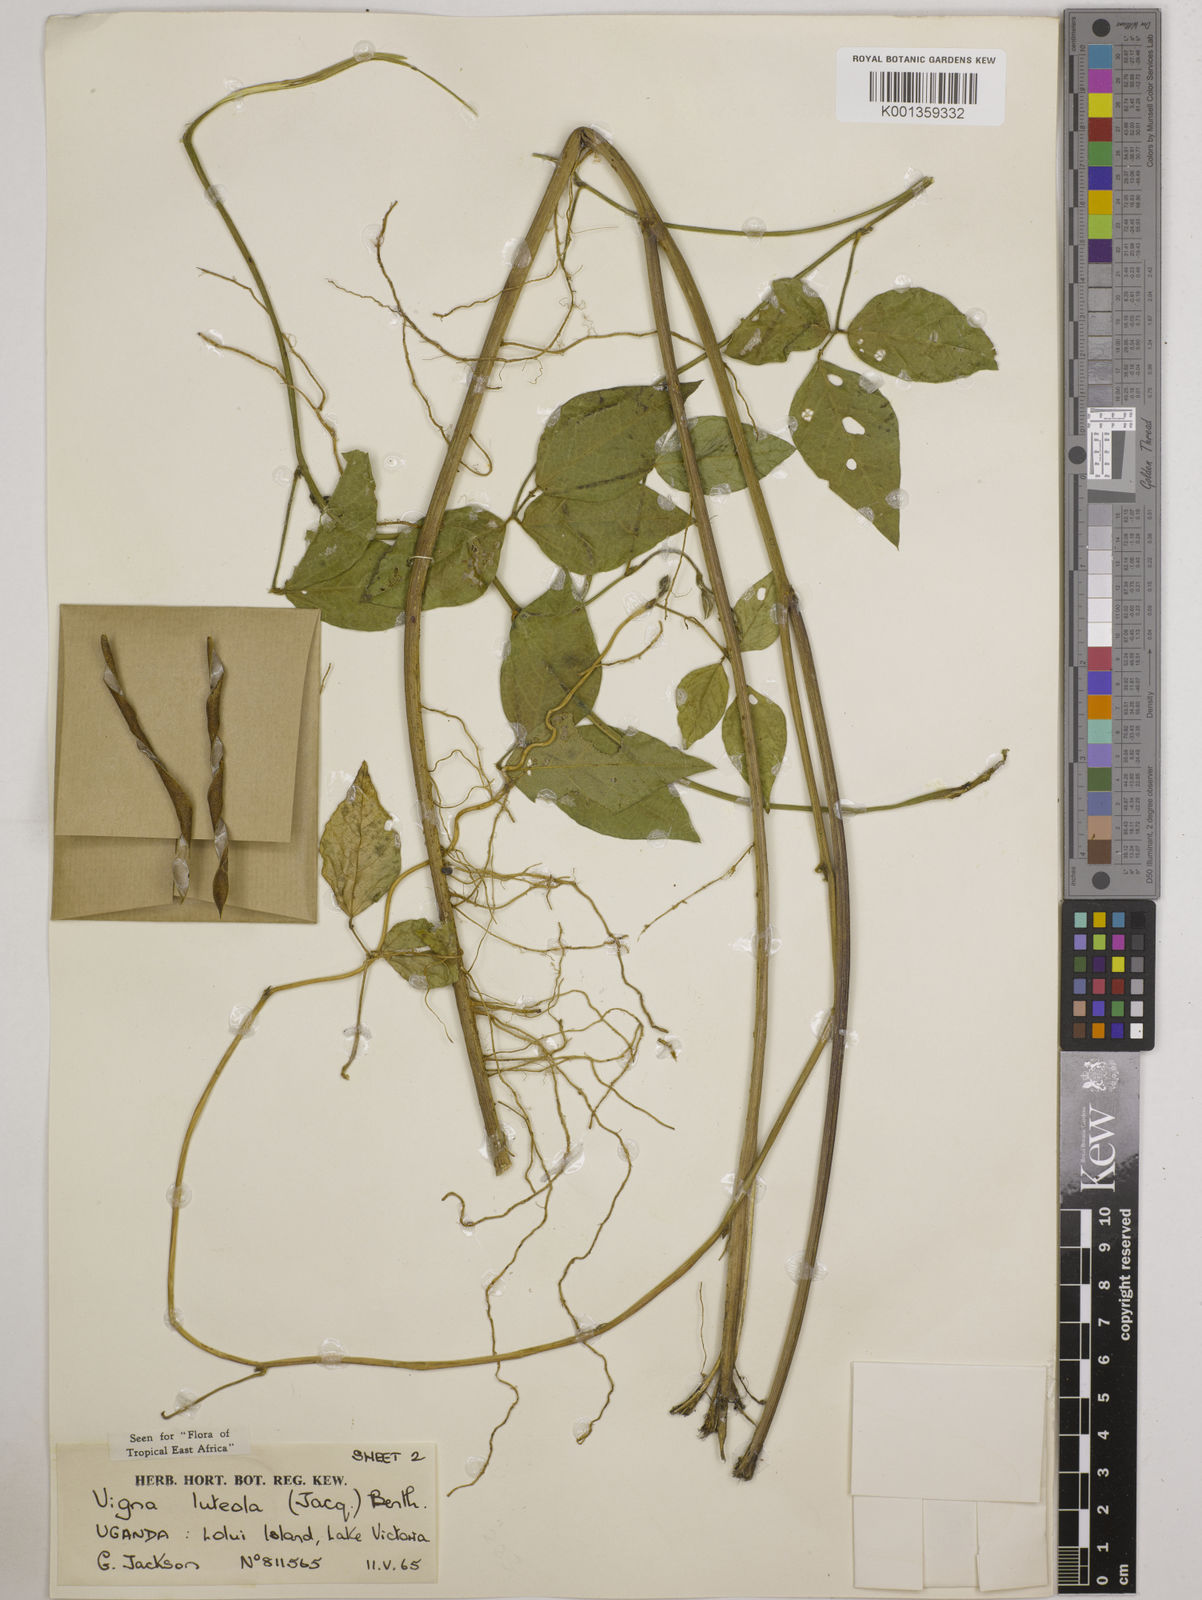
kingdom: Plantae
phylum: Tracheophyta
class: Magnoliopsida
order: Fabales
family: Fabaceae
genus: Vigna
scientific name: Vigna luteola
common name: Hairypod cowpea
